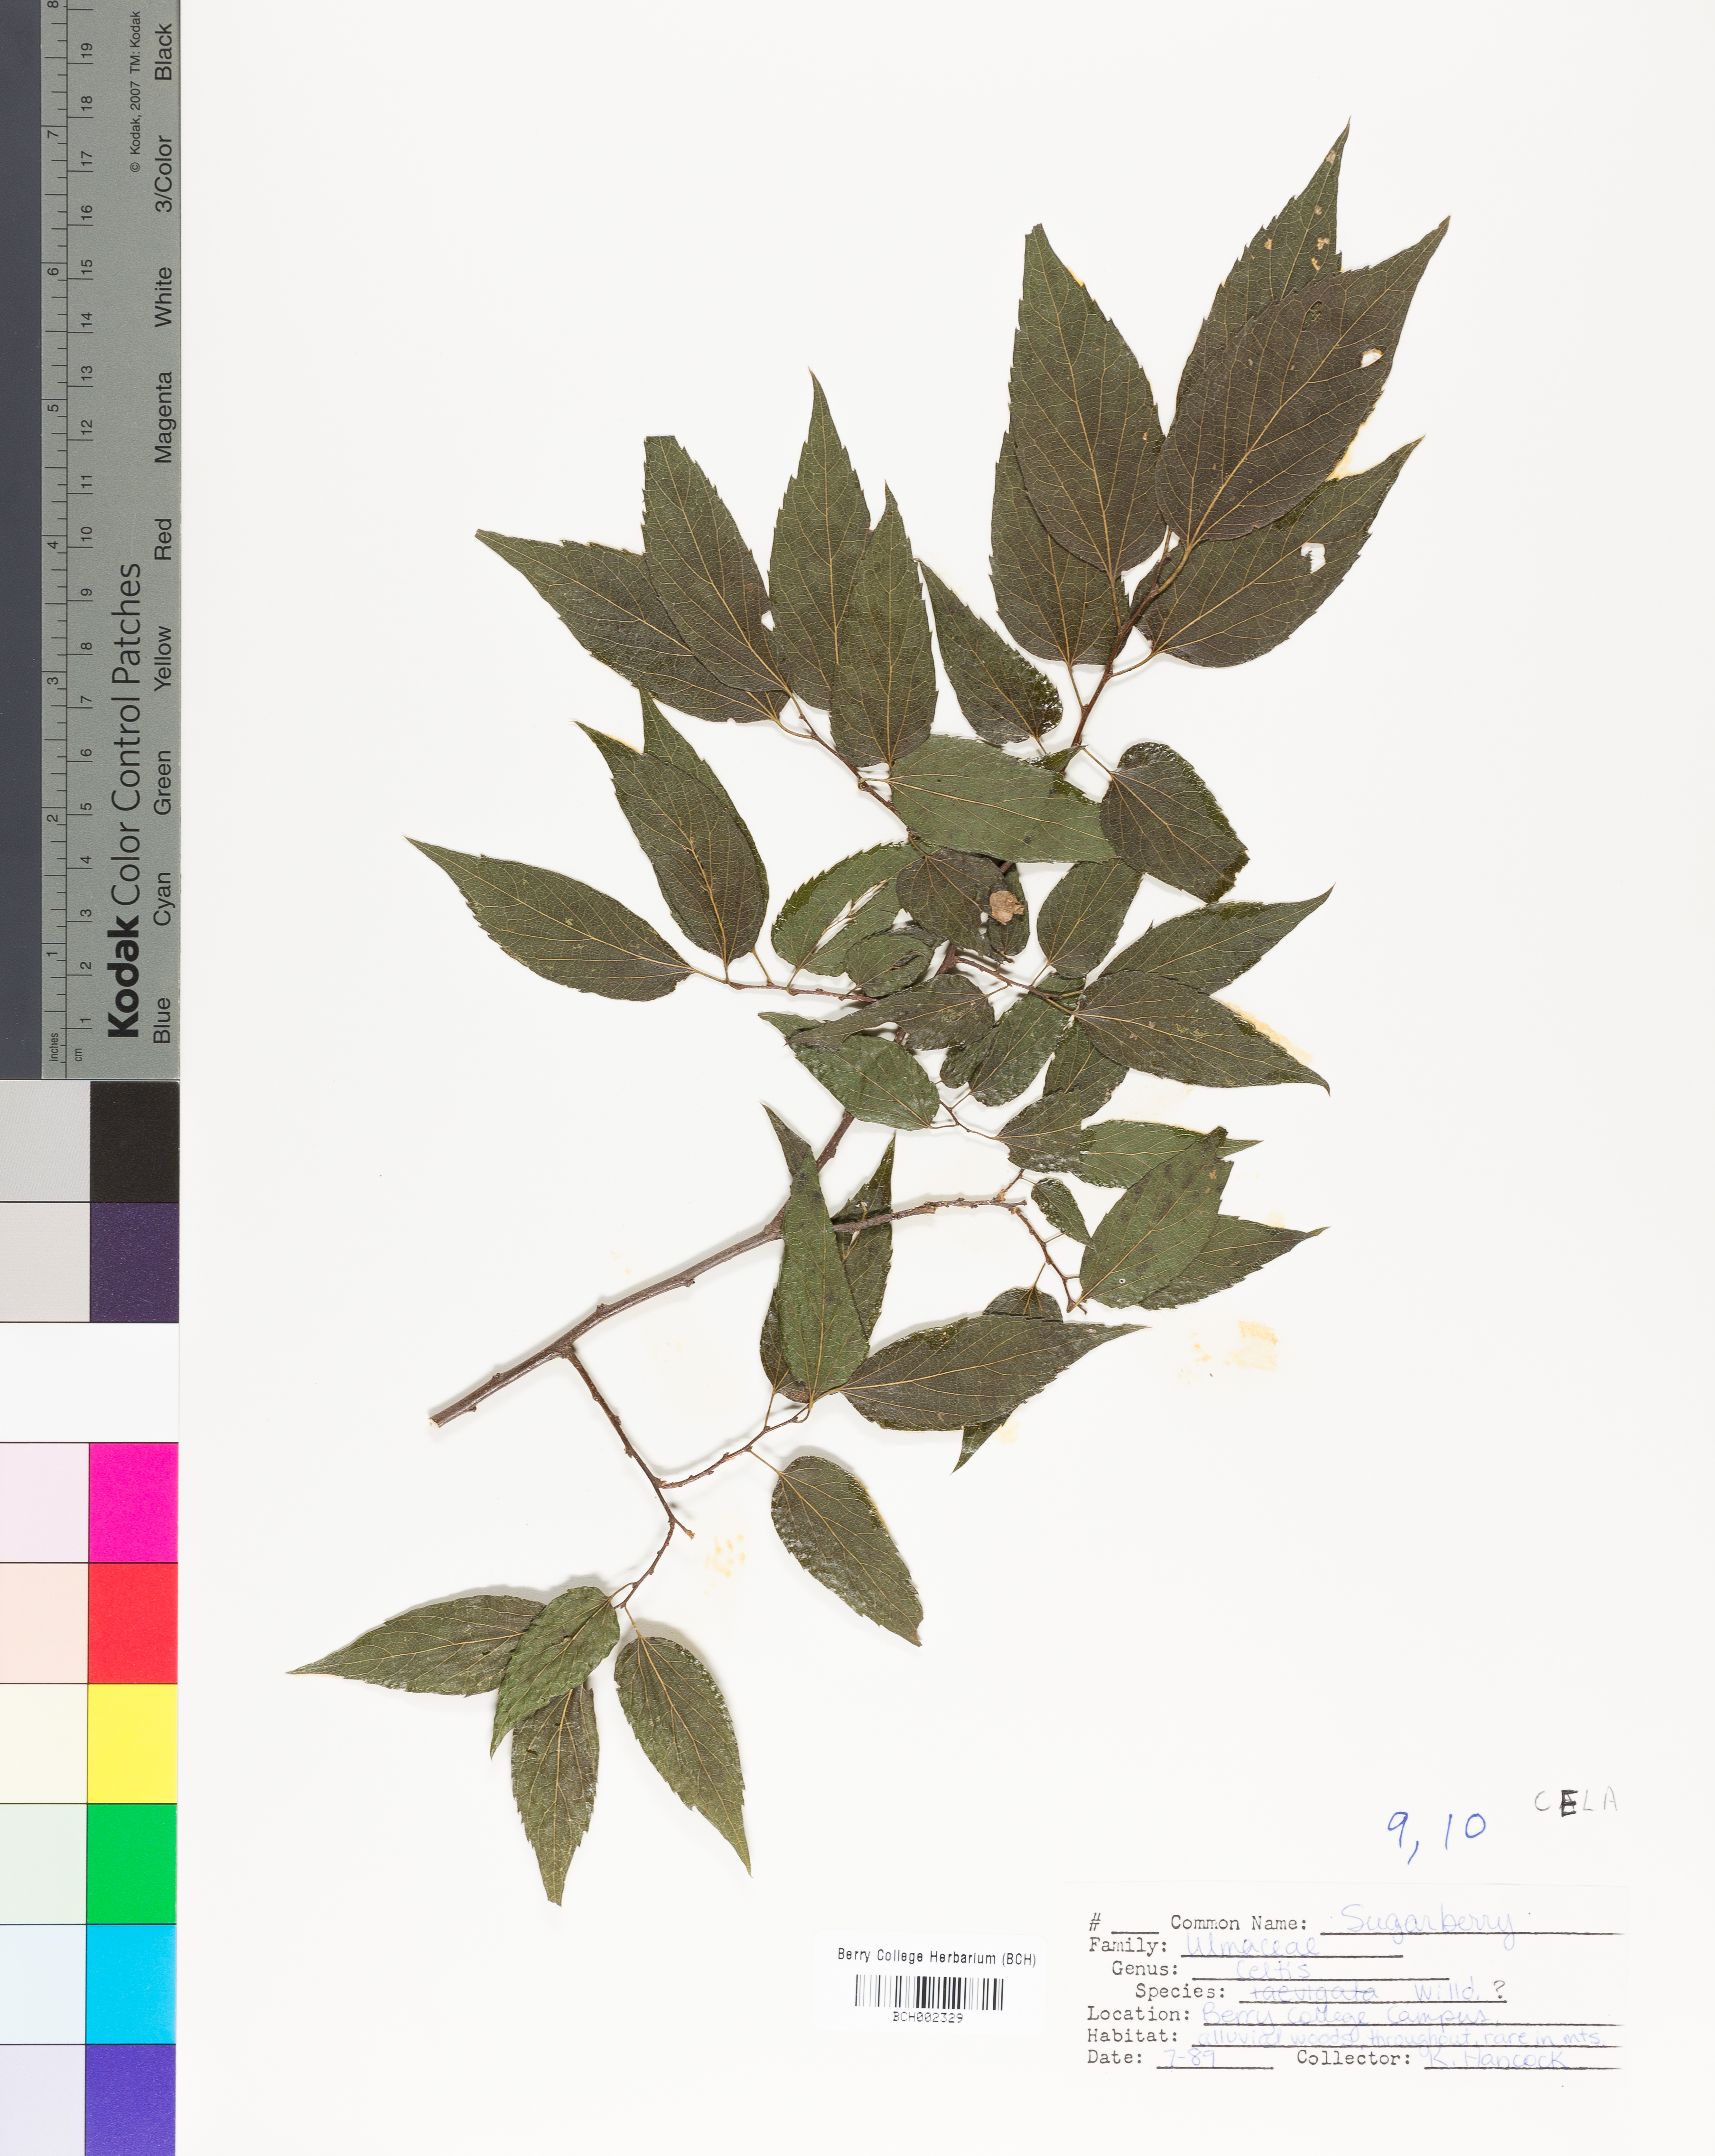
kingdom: Plantae
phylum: Tracheophyta
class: Magnoliopsida
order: Rosales
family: Cannabaceae
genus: Celtis
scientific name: Celtis laevigata
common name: Sugarberry
